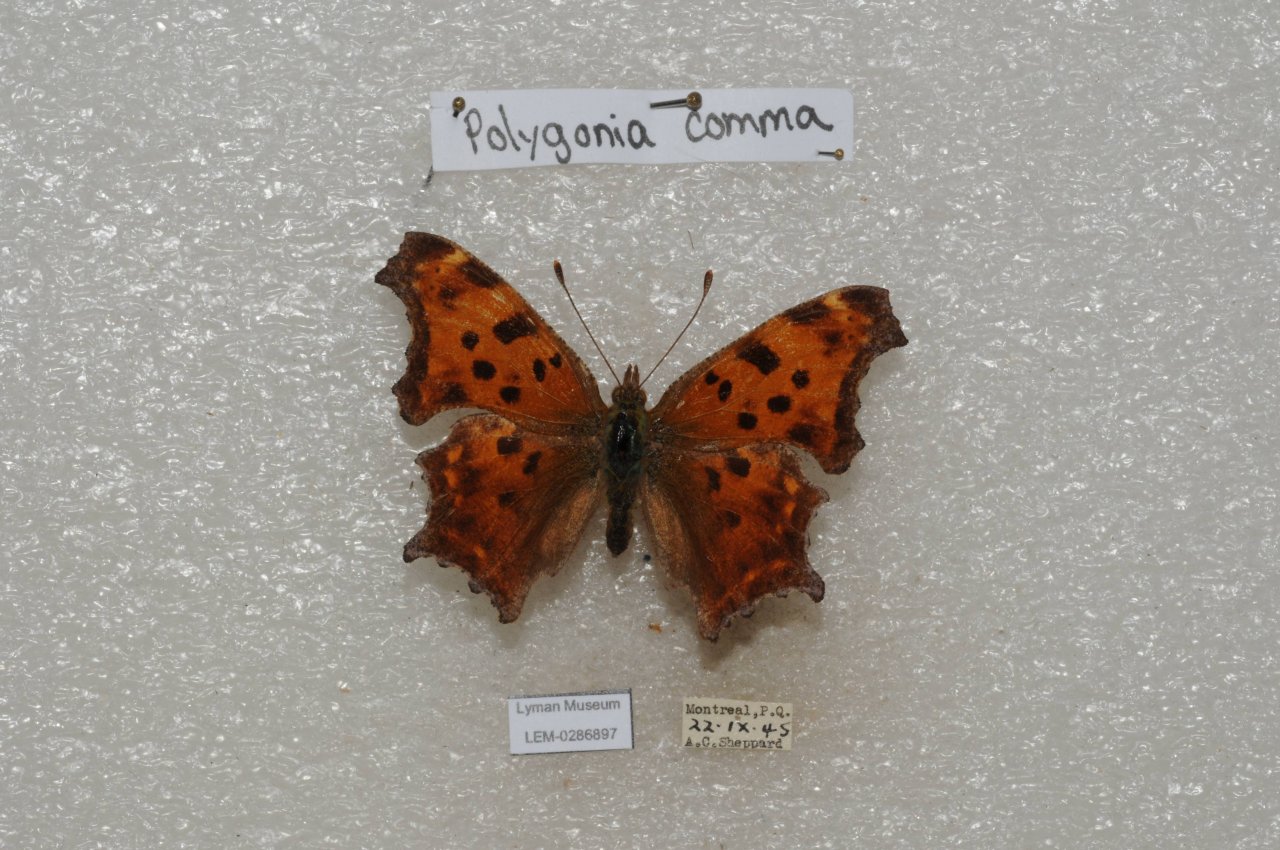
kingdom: Animalia
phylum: Arthropoda
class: Insecta
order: Lepidoptera
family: Nymphalidae
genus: Polygonia
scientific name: Polygonia comma
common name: Eastern Comma
